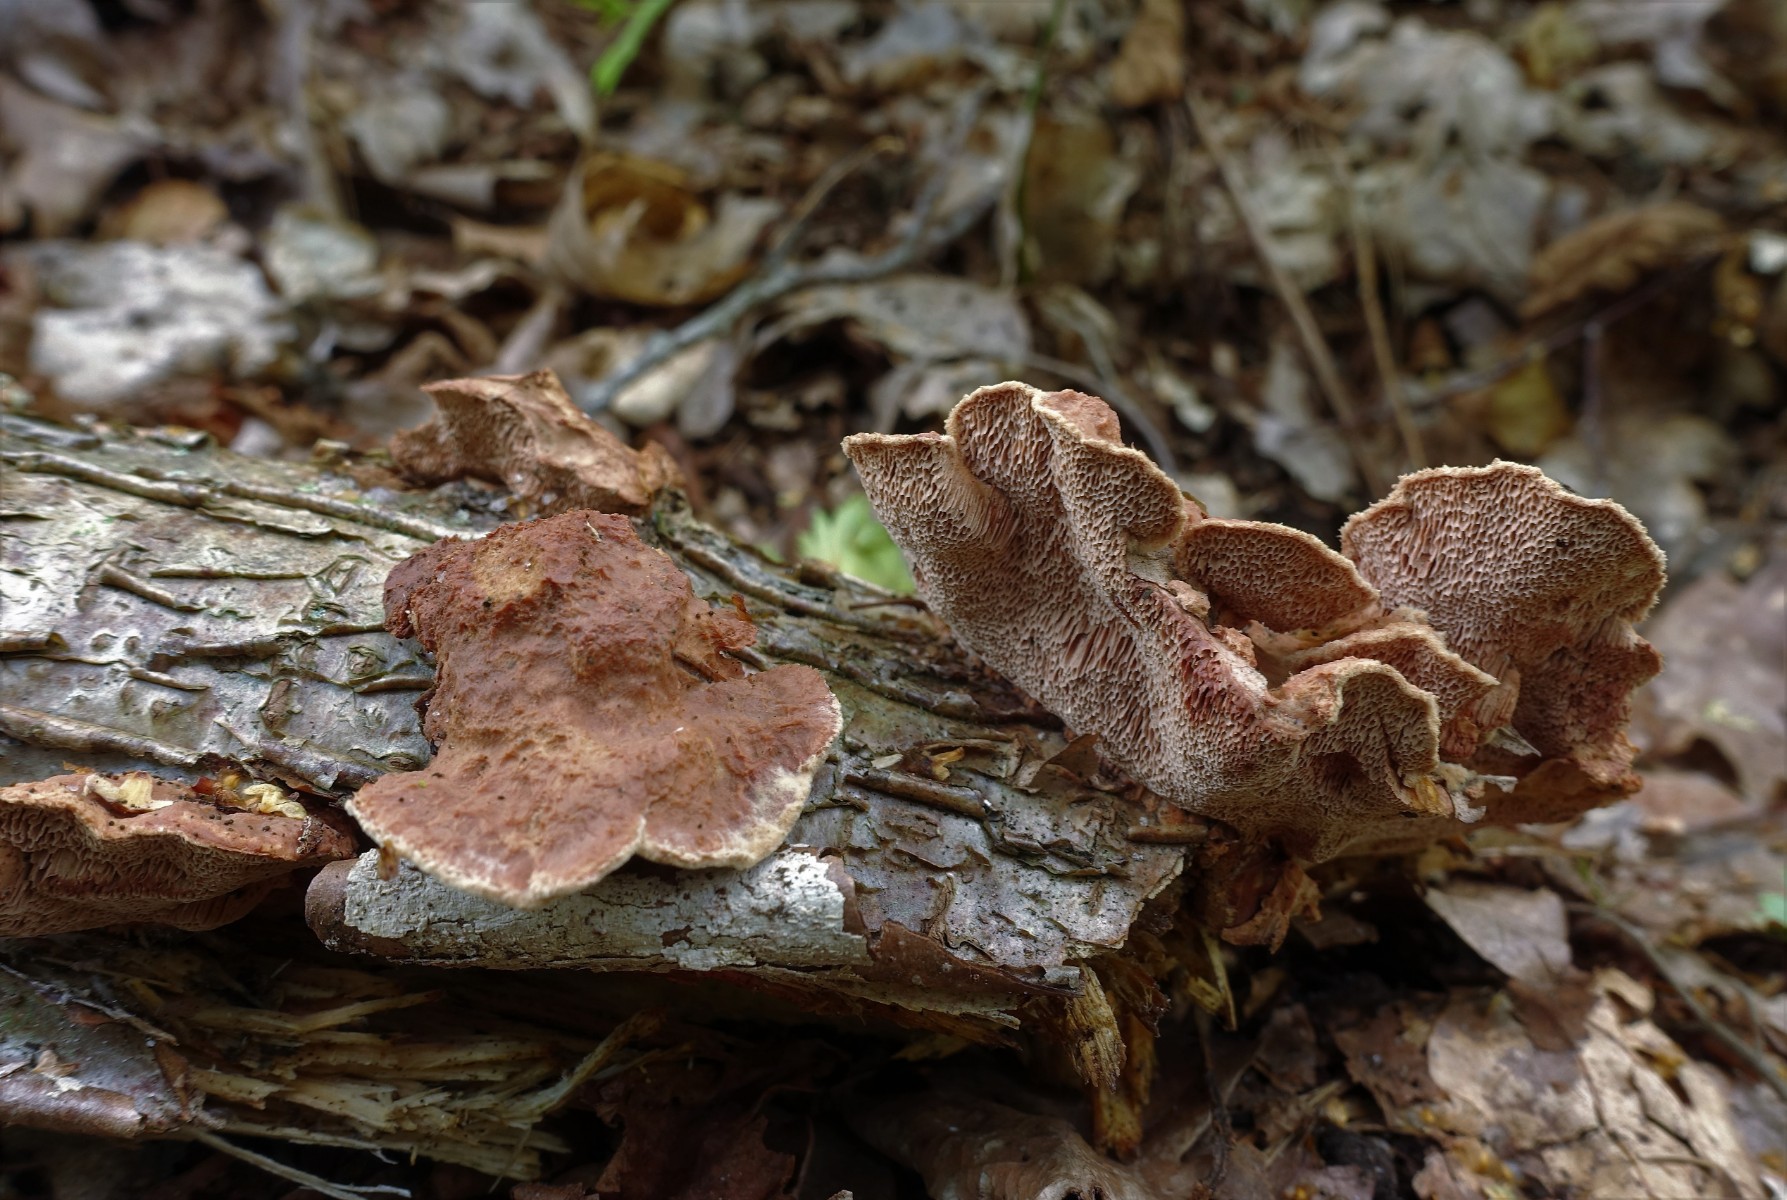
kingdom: Fungi
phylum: Basidiomycota
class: Agaricomycetes
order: Polyporales
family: Phanerochaetaceae
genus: Hapalopilus
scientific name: Hapalopilus rutilans
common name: rødlig okkerporesvamp
